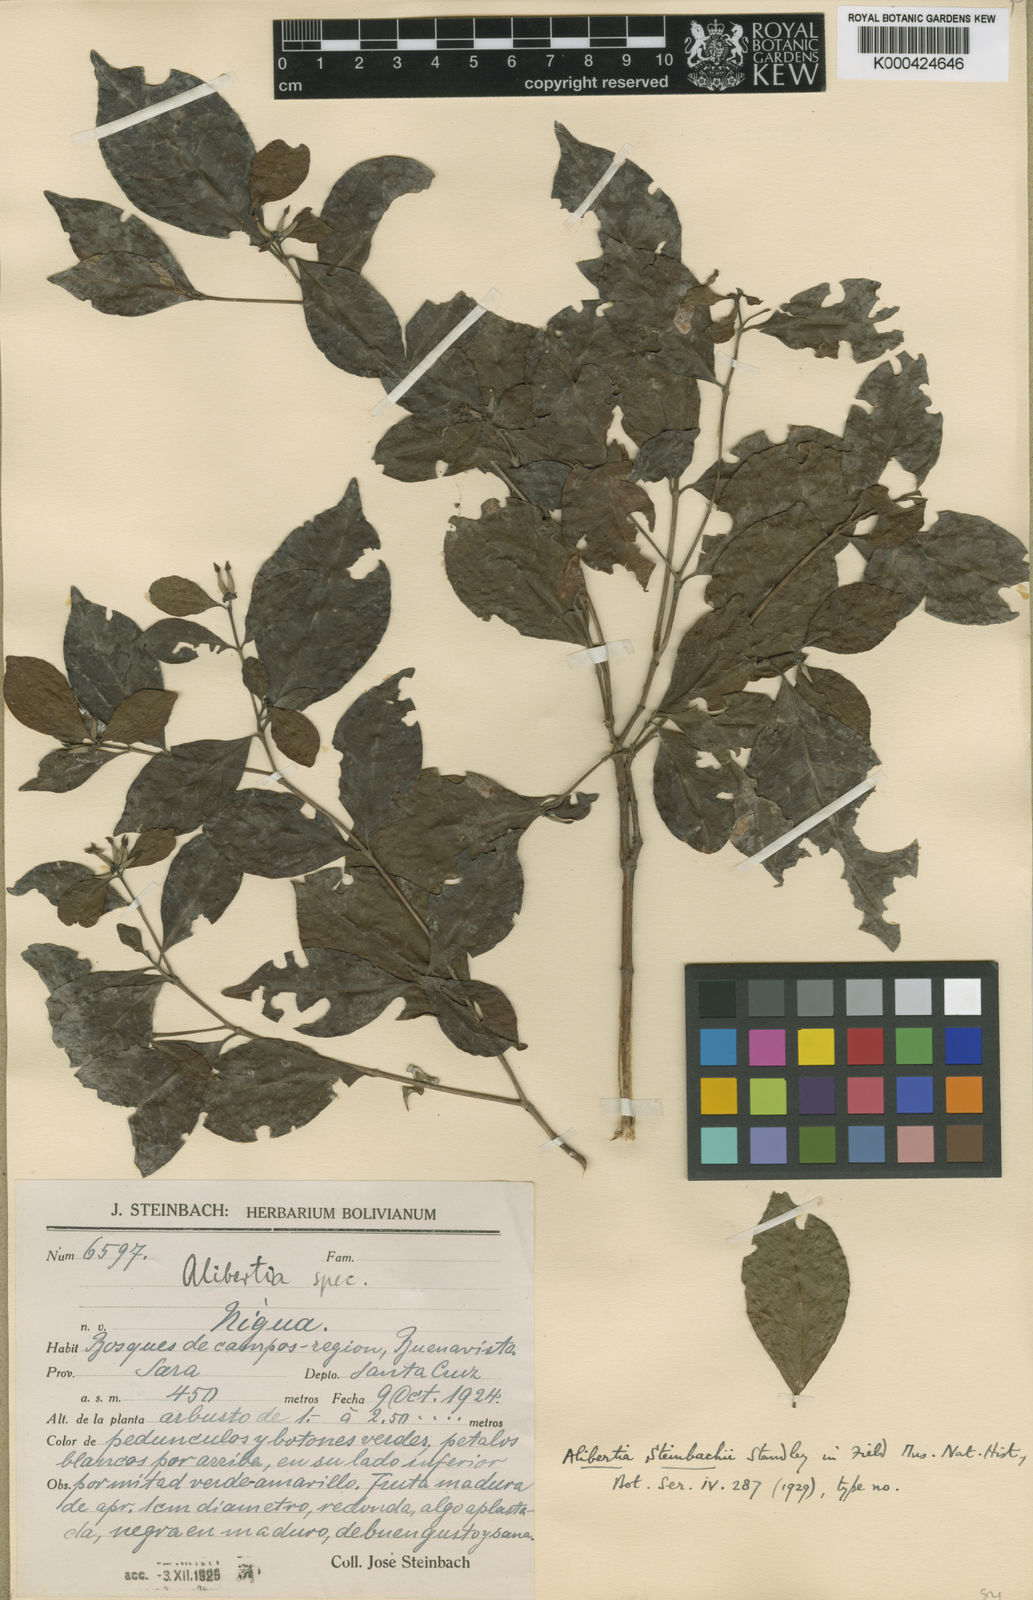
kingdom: Plantae
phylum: Tracheophyta
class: Magnoliopsida
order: Gentianales
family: Rubiaceae
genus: Cordiera
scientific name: Cordiera triflora
